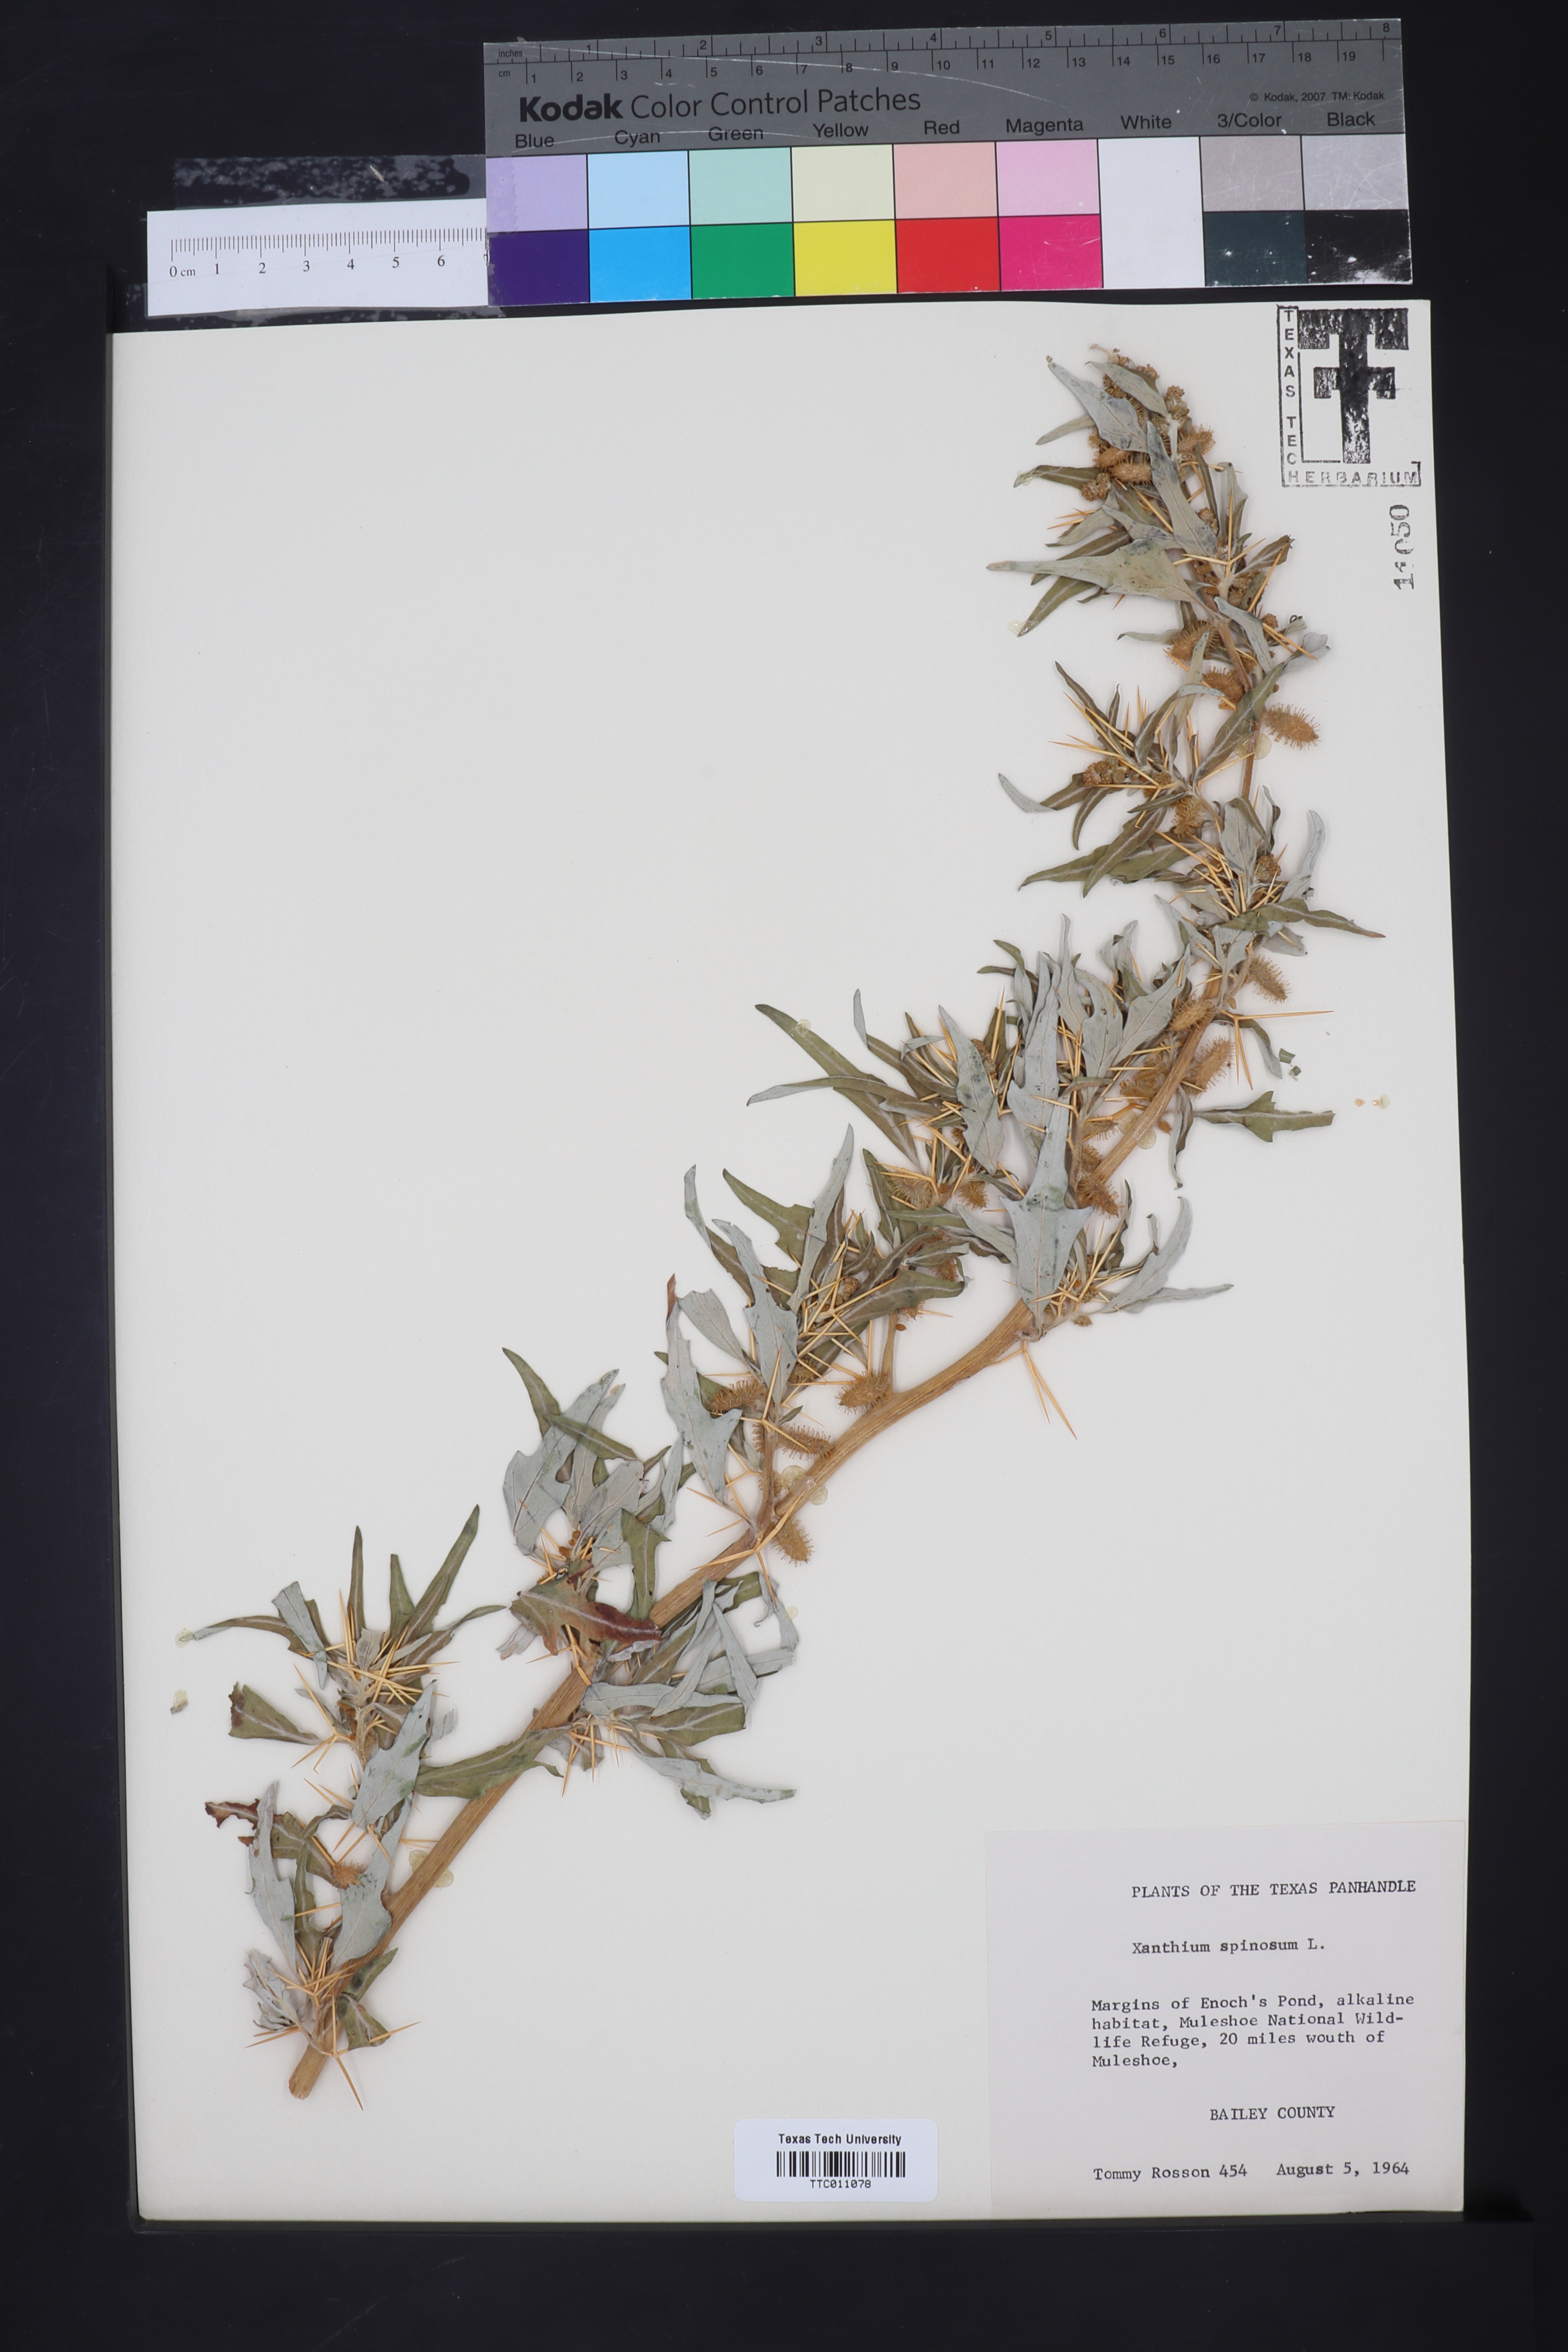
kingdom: Plantae
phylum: Tracheophyta
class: Magnoliopsida
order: Asterales
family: Asteraceae
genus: Xanthium
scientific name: Xanthium spinosum
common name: Spiny cocklebur
